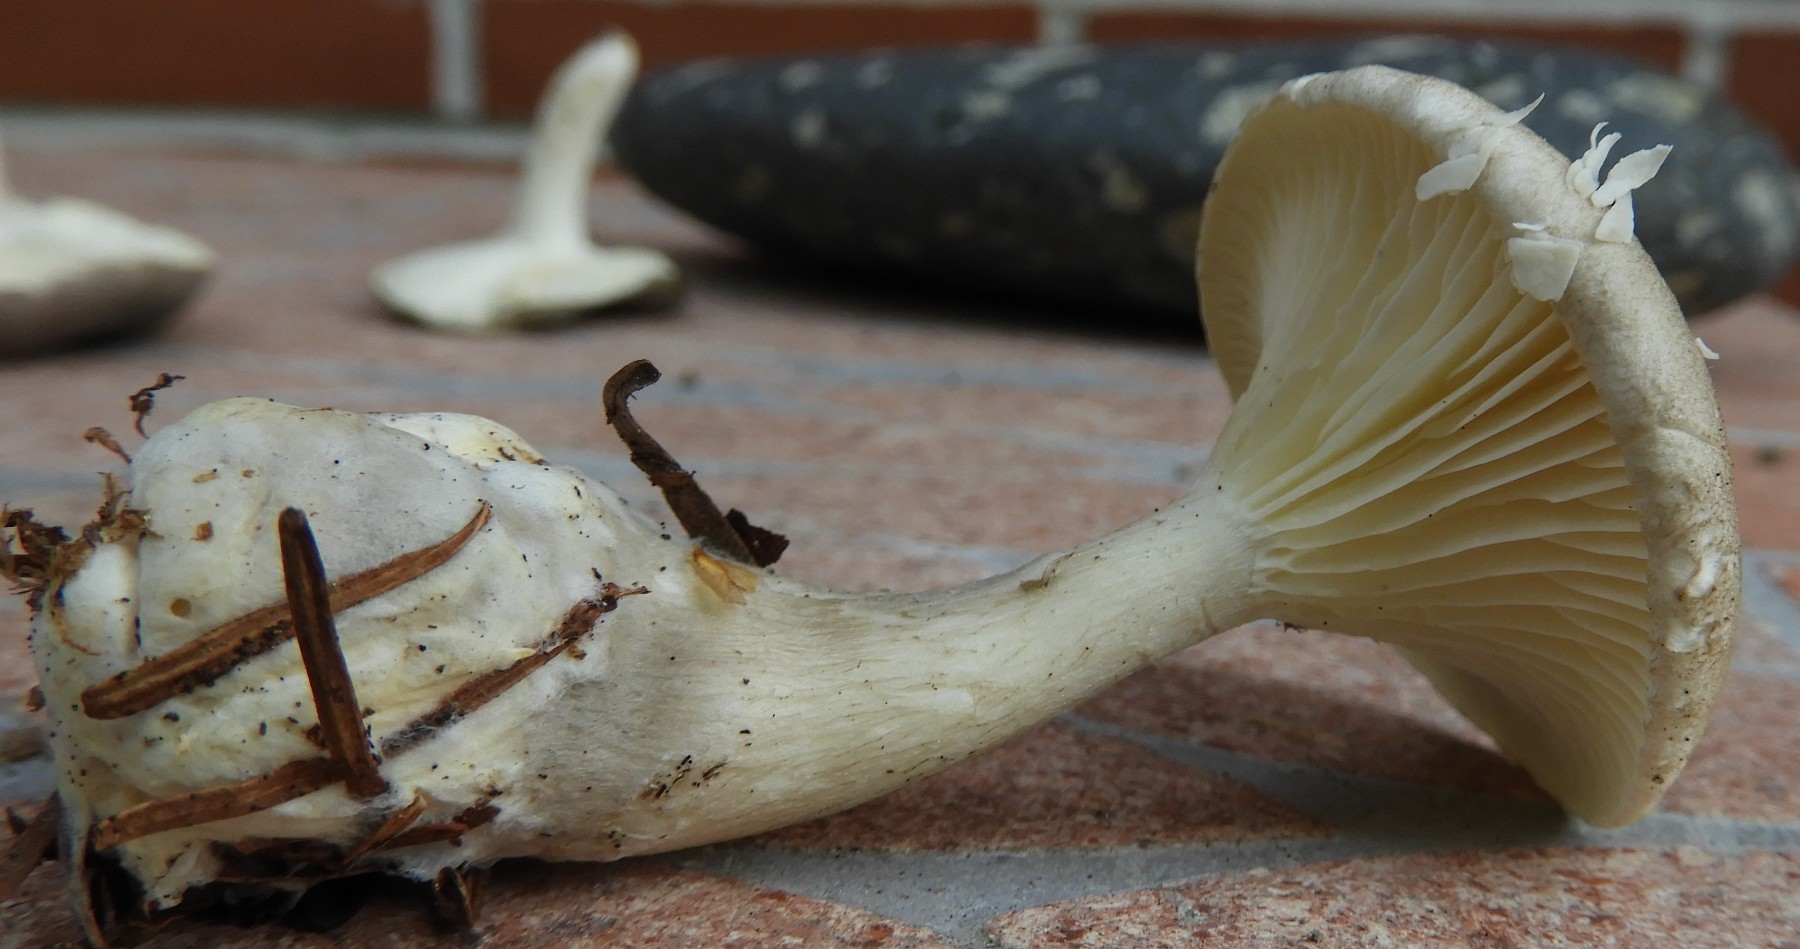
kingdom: Fungi
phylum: Basidiomycota
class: Agaricomycetes
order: Agaricales
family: Hygrophoraceae
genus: Ampulloclitocybe
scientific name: Ampulloclitocybe clavipes
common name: køllefod
